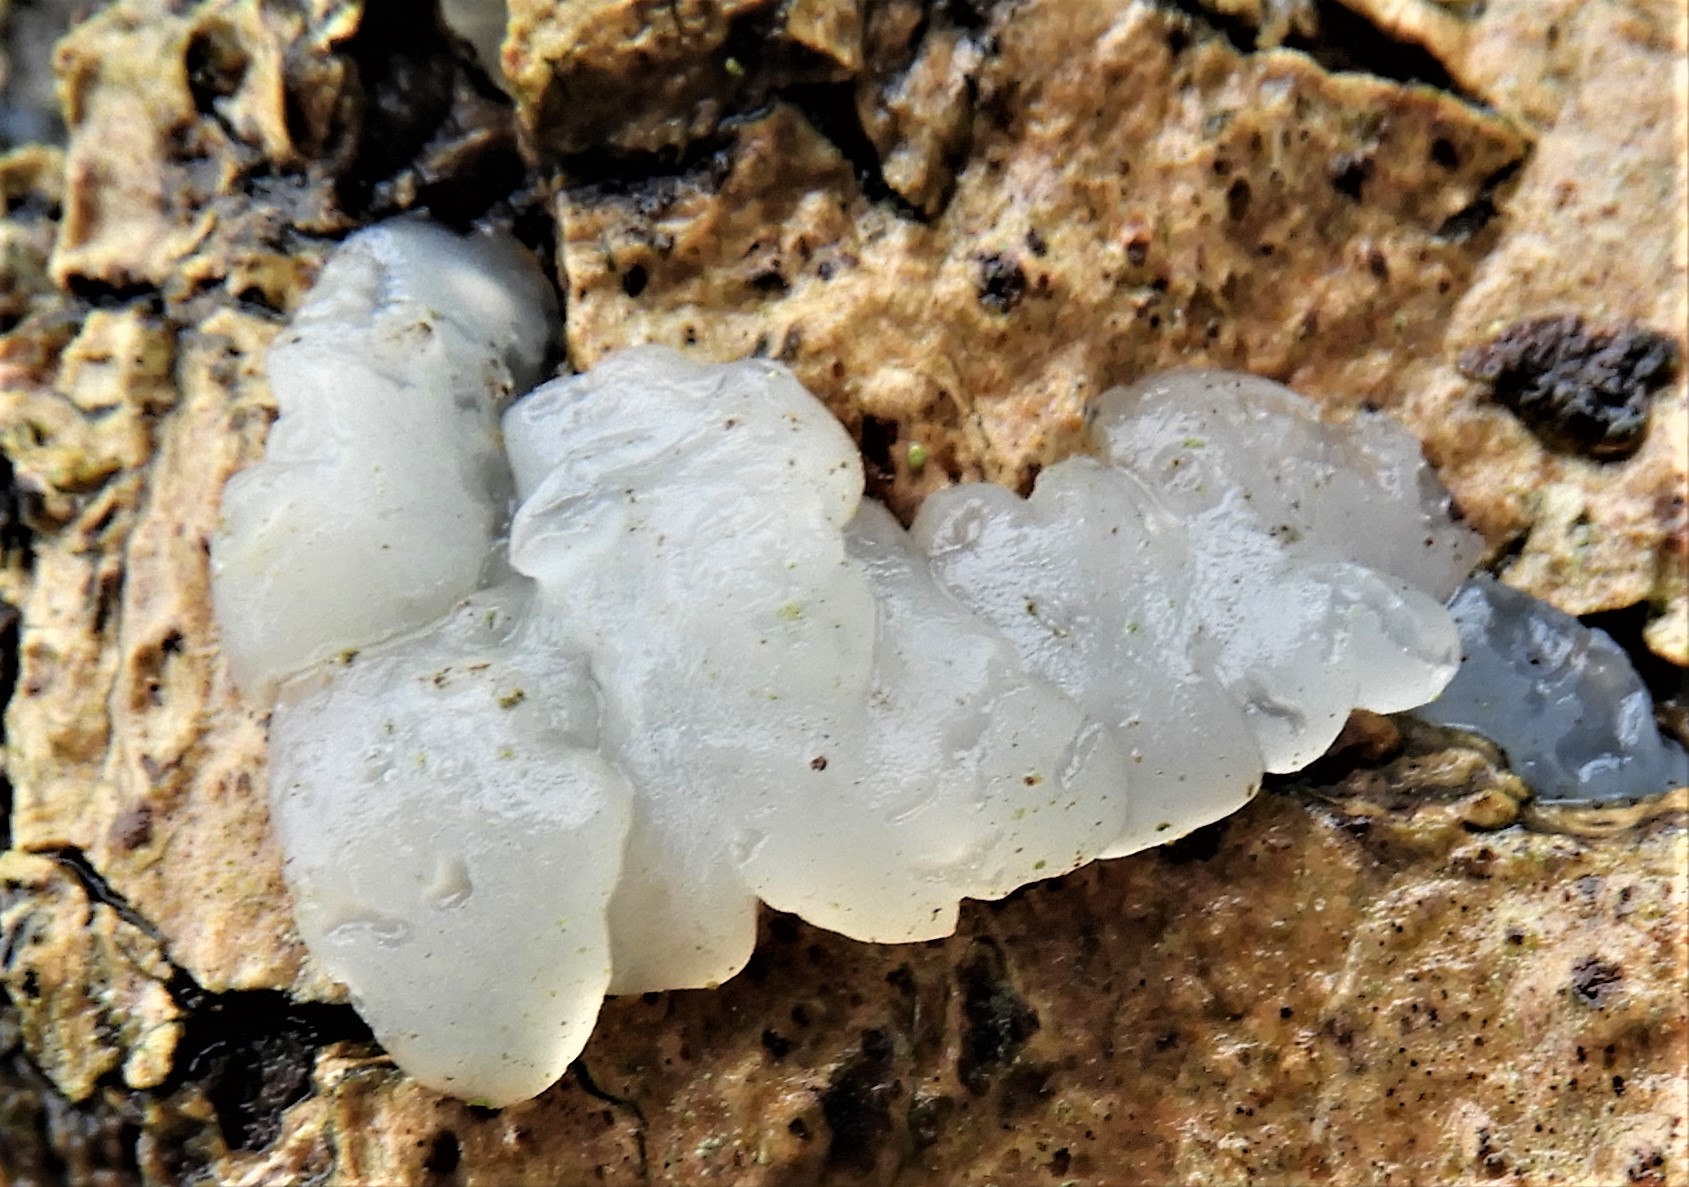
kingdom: Fungi
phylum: Basidiomycota
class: Agaricomycetes
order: Auriculariales
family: Hyaloriaceae
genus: Myxarium
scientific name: Myxarium nucleatum
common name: klar bævretop
